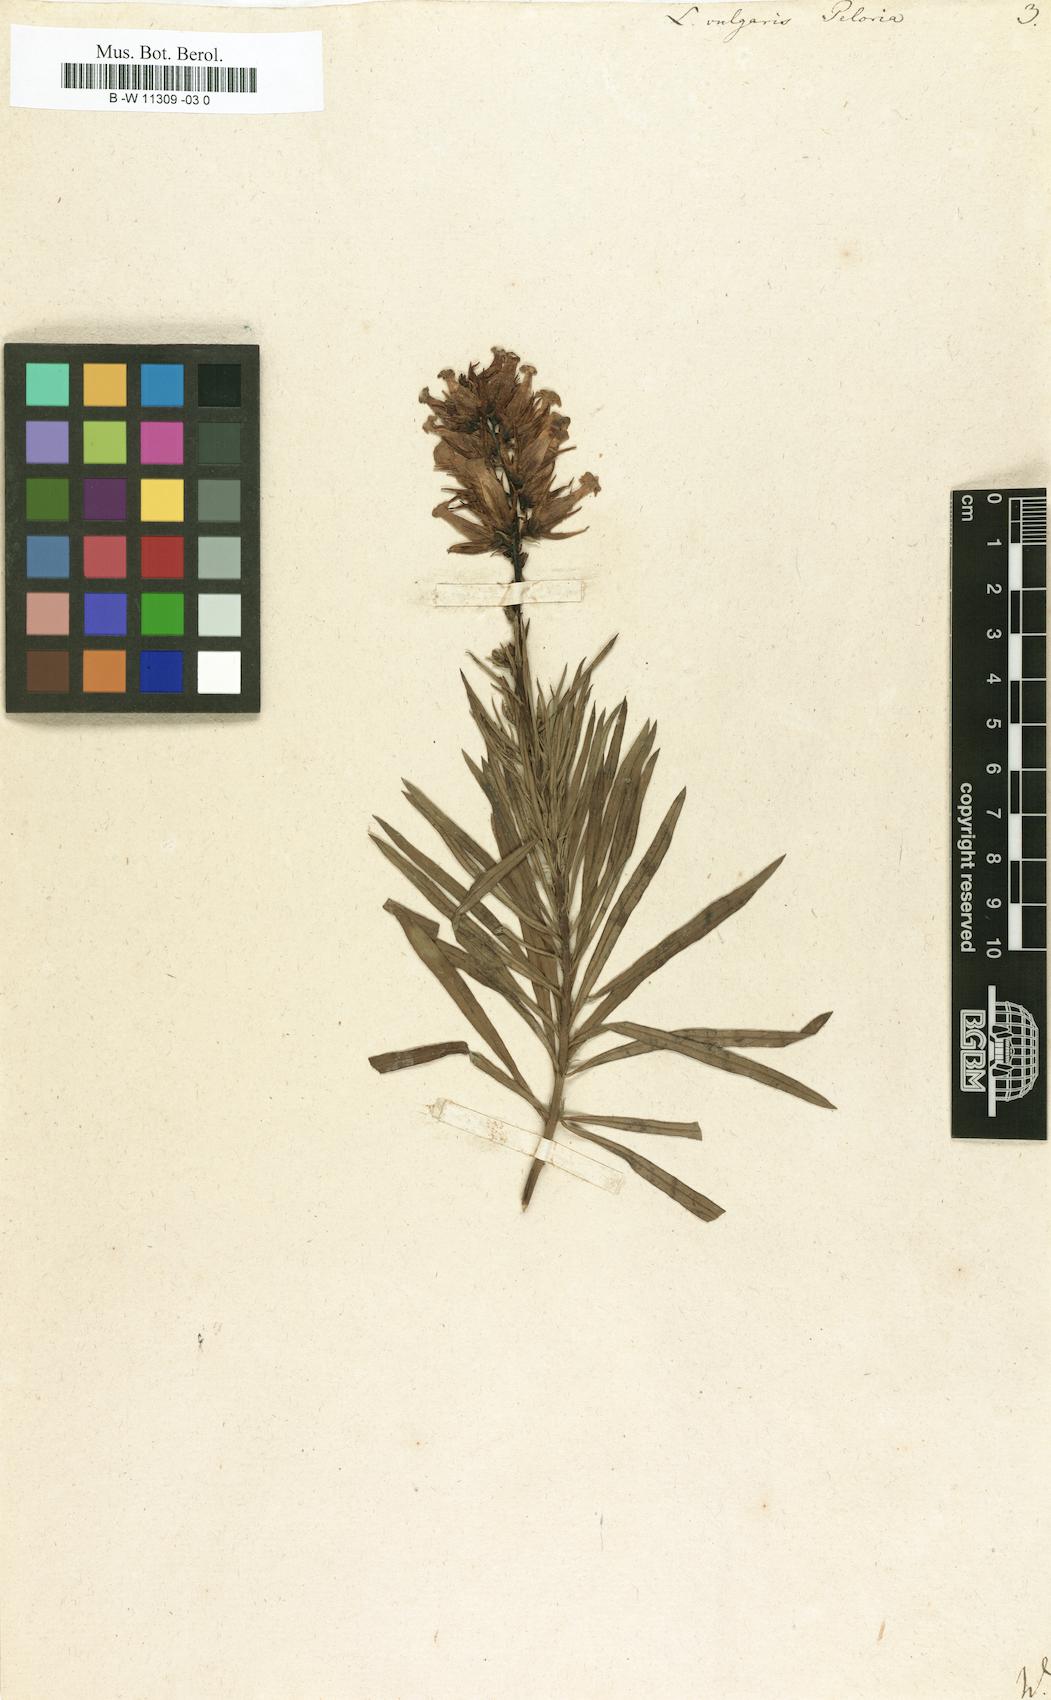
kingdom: Plantae
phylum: Tracheophyta
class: Magnoliopsida
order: Lamiales
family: Plantaginaceae
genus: Linaria
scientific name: Linaria vulgaris
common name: Butter and eggs
